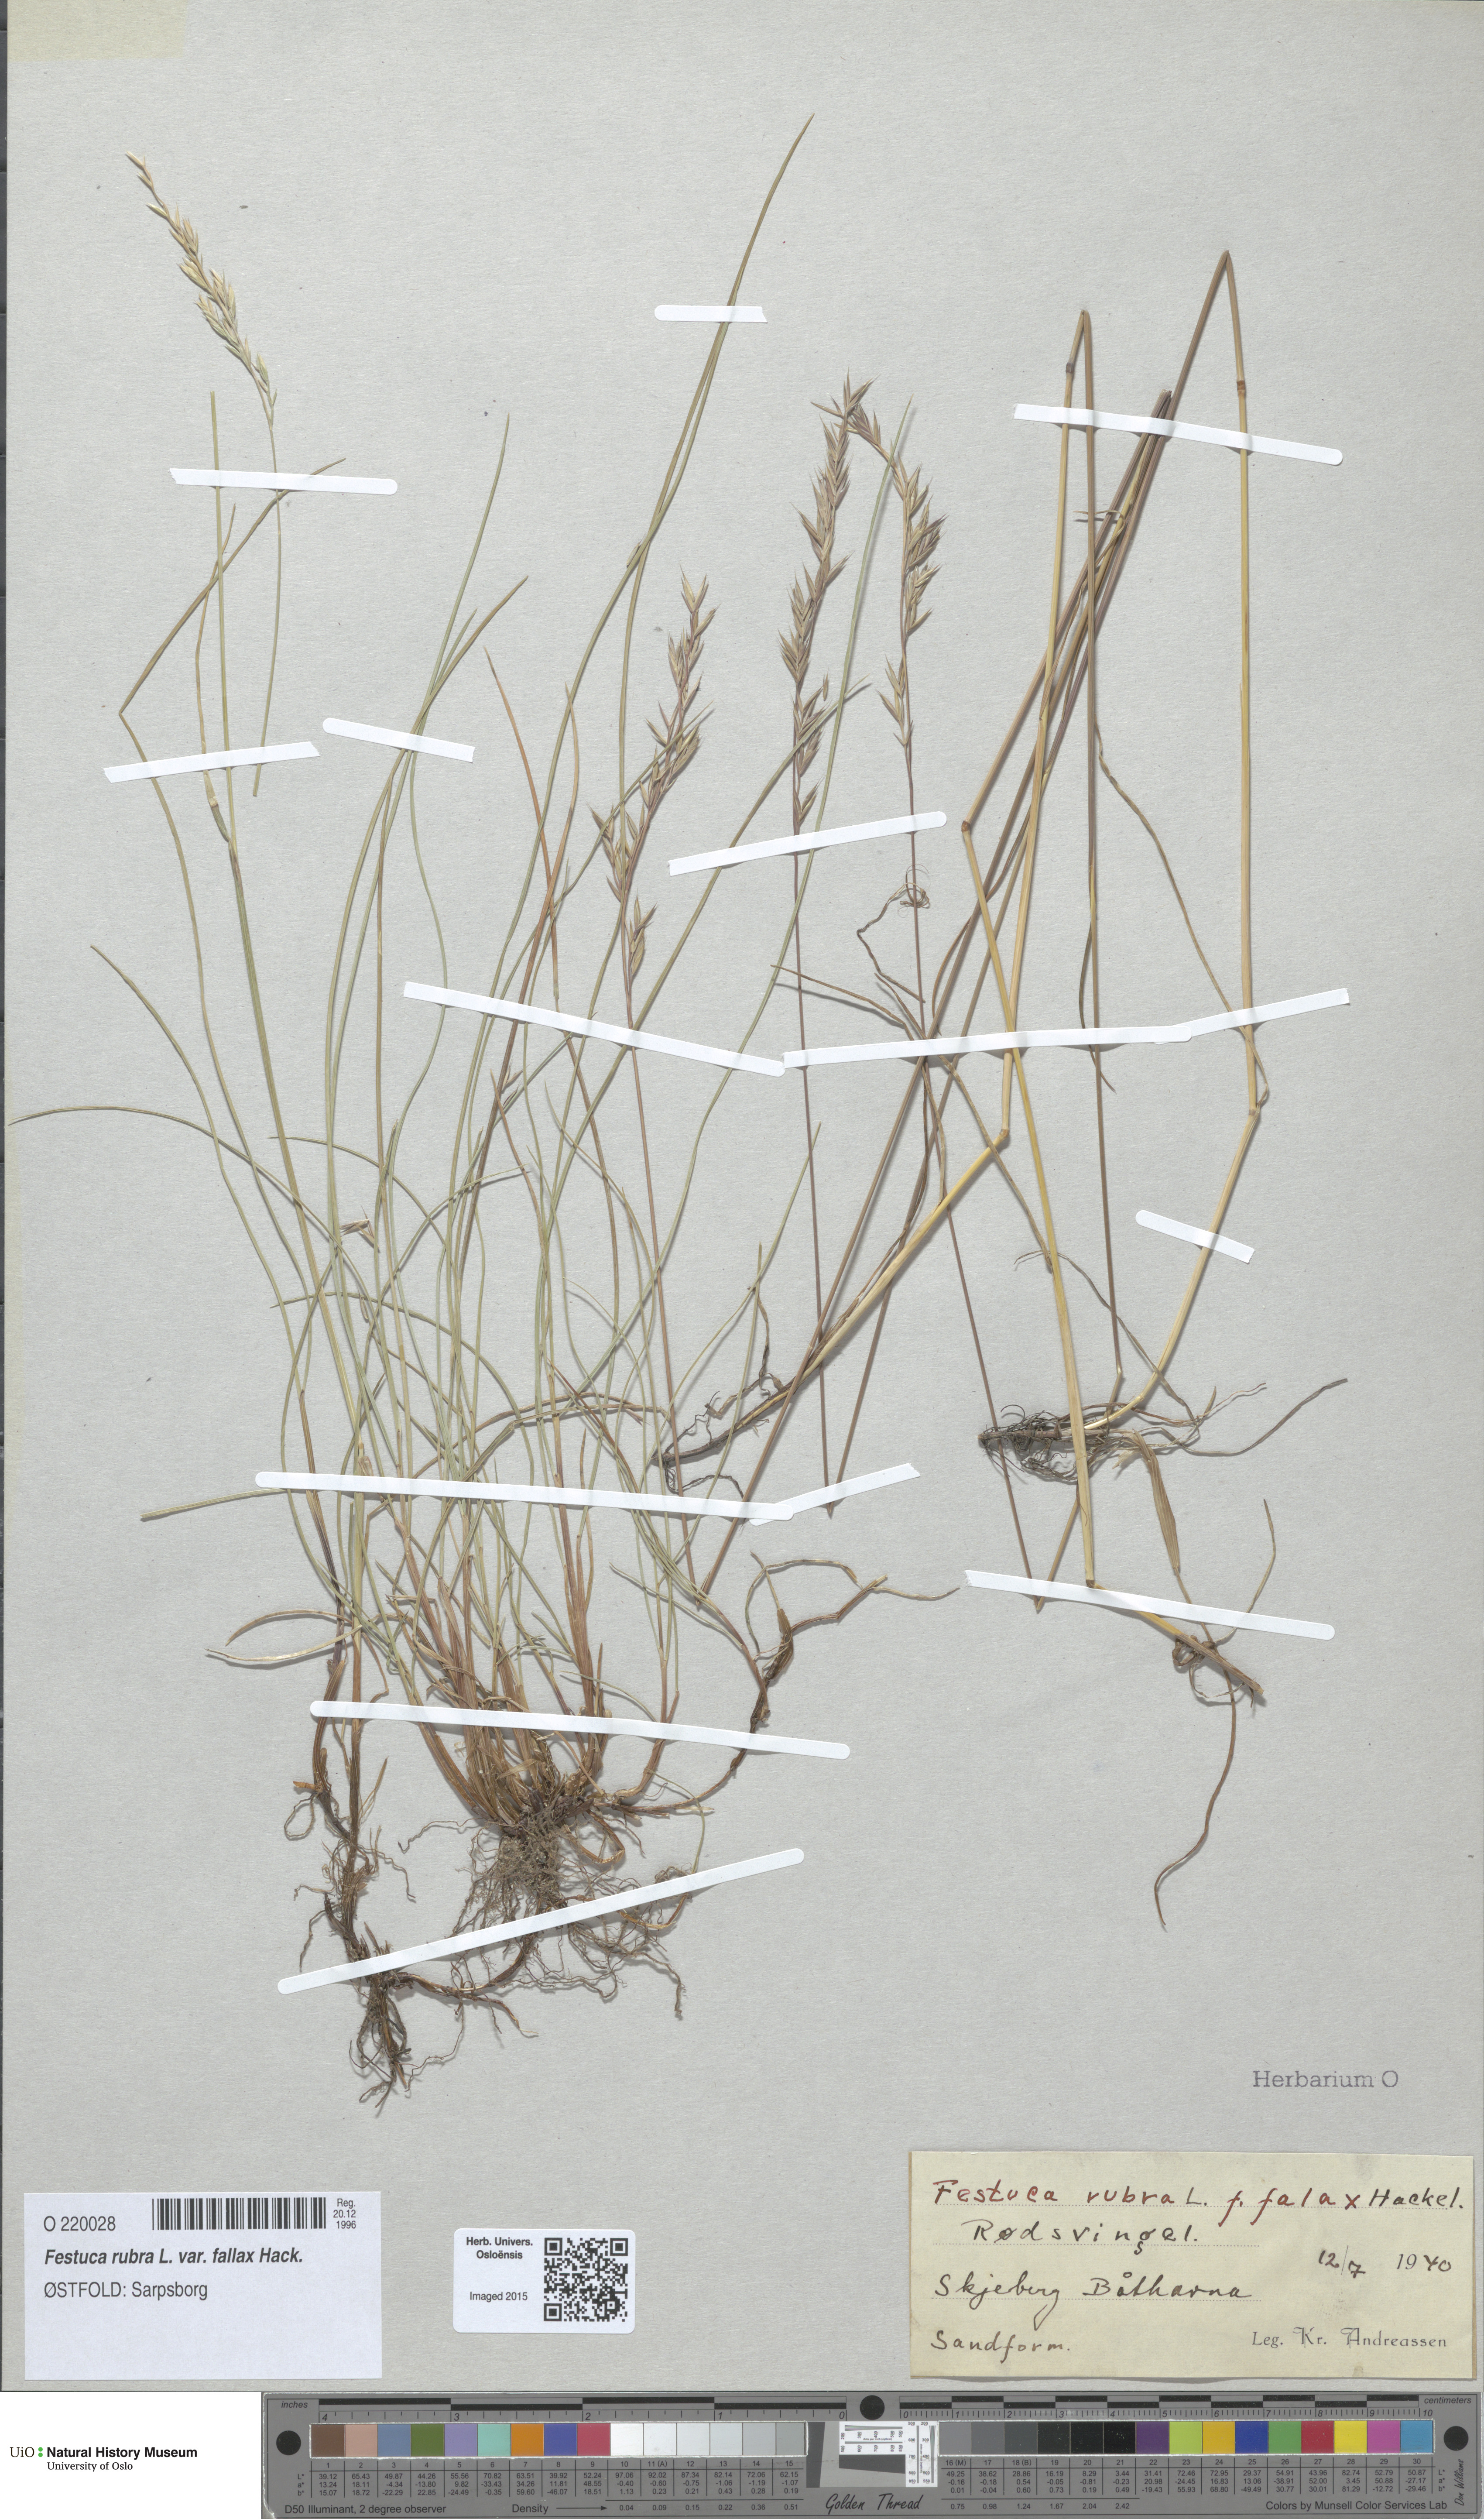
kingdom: Plantae
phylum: Tracheophyta
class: Liliopsida
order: Poales
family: Poaceae
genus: Festuca
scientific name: Festuca rubra
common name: Red fescue
